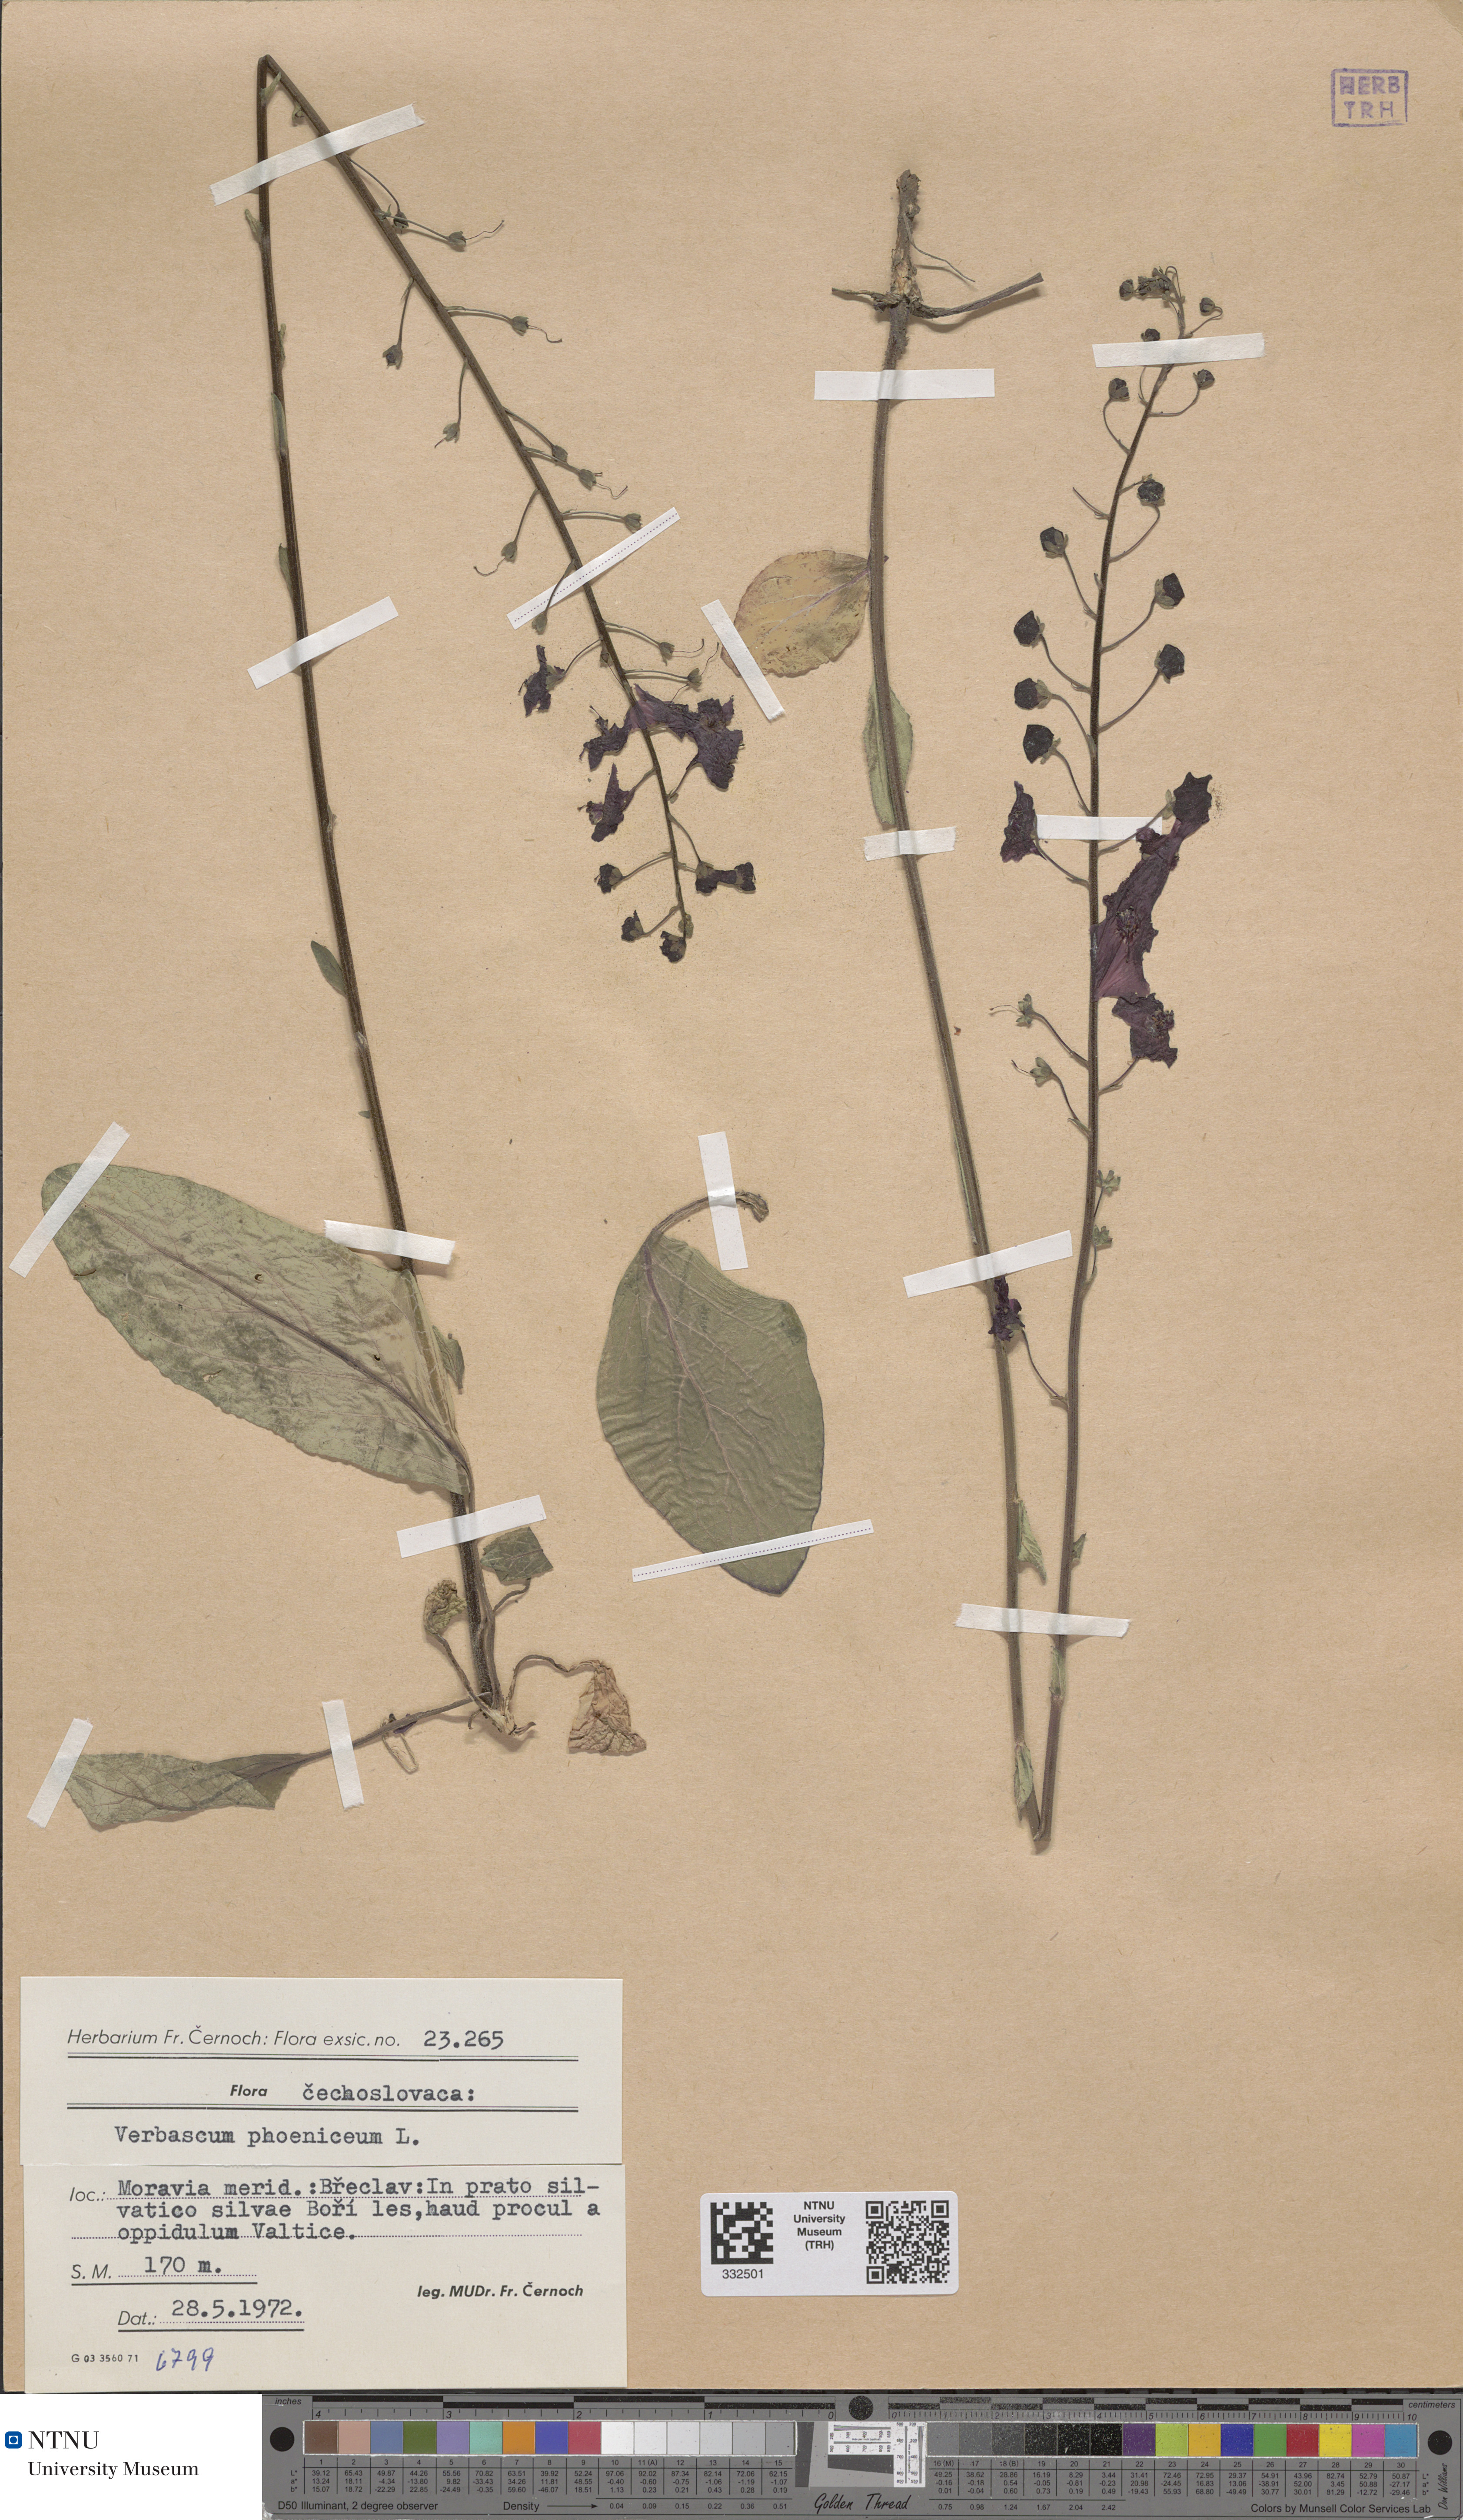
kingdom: Plantae
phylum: Tracheophyta
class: Magnoliopsida
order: Lamiales
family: Scrophulariaceae
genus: Verbascum
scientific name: Verbascum phoeniceum
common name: Purple mullein
